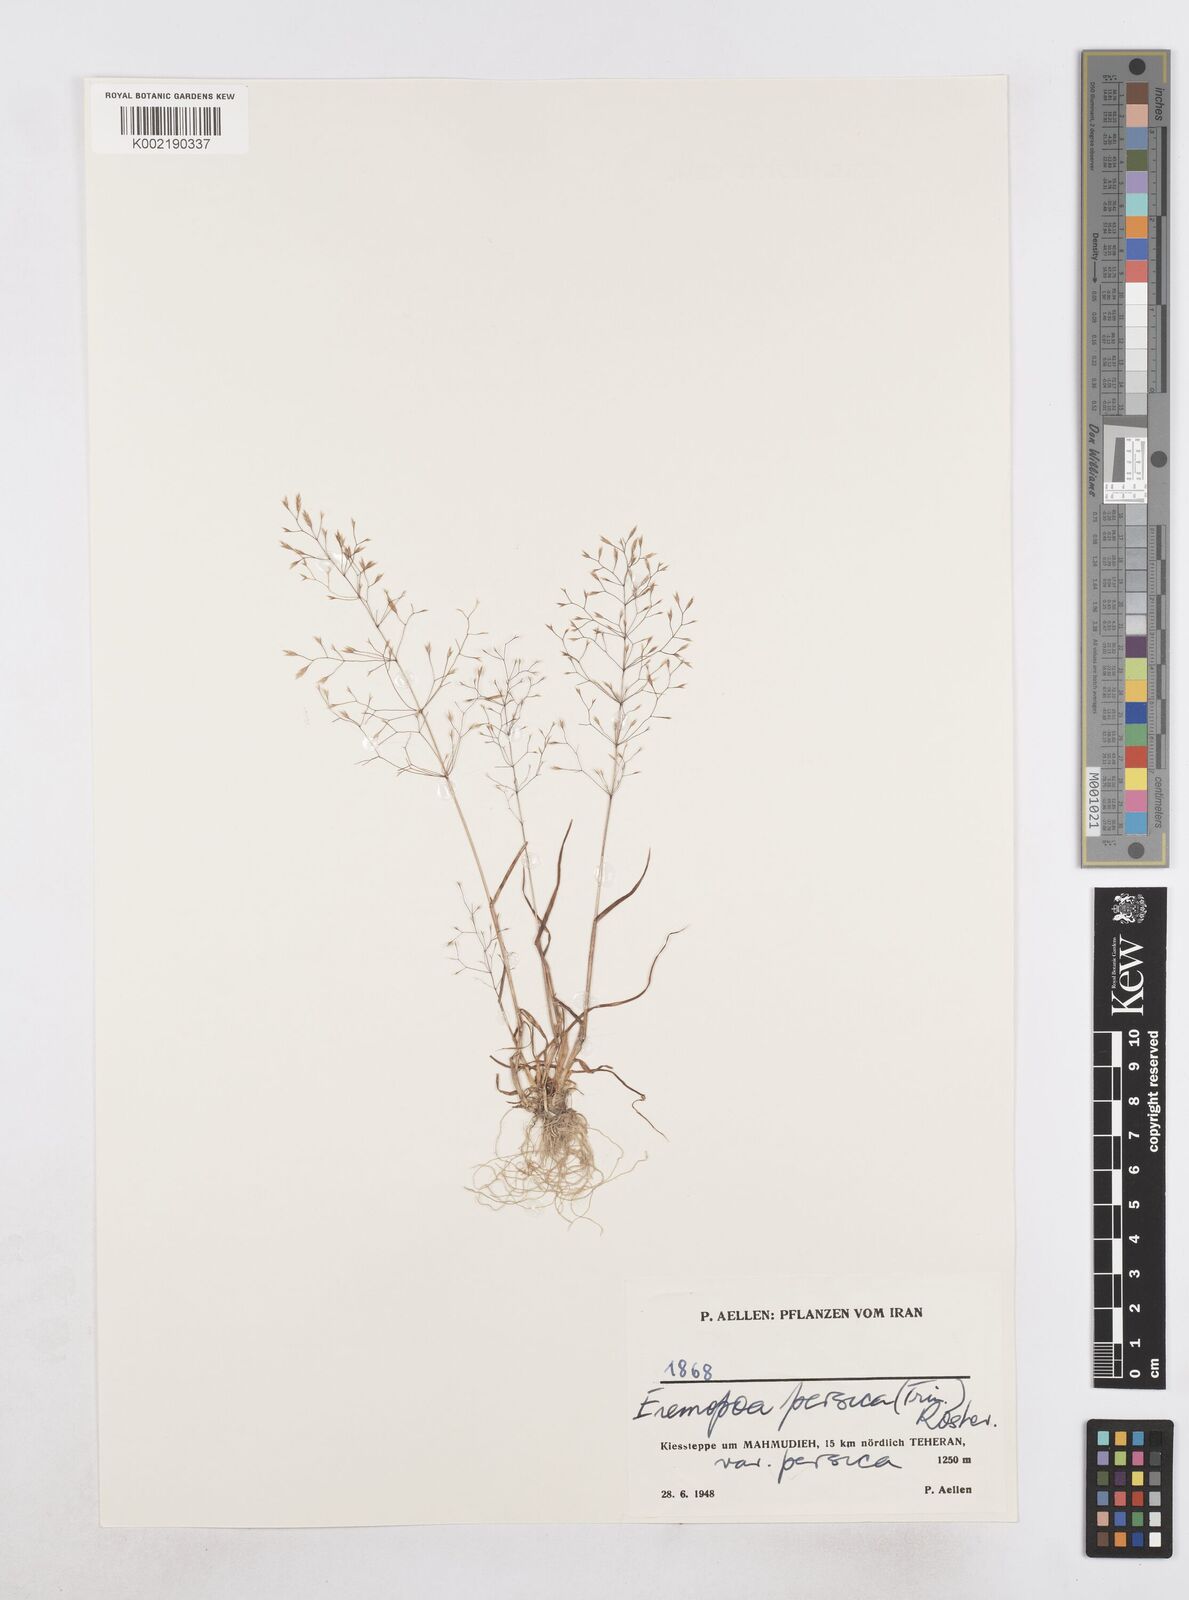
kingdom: Plantae
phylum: Tracheophyta
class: Liliopsida
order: Poales
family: Poaceae
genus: Poa
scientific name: Poa persica
